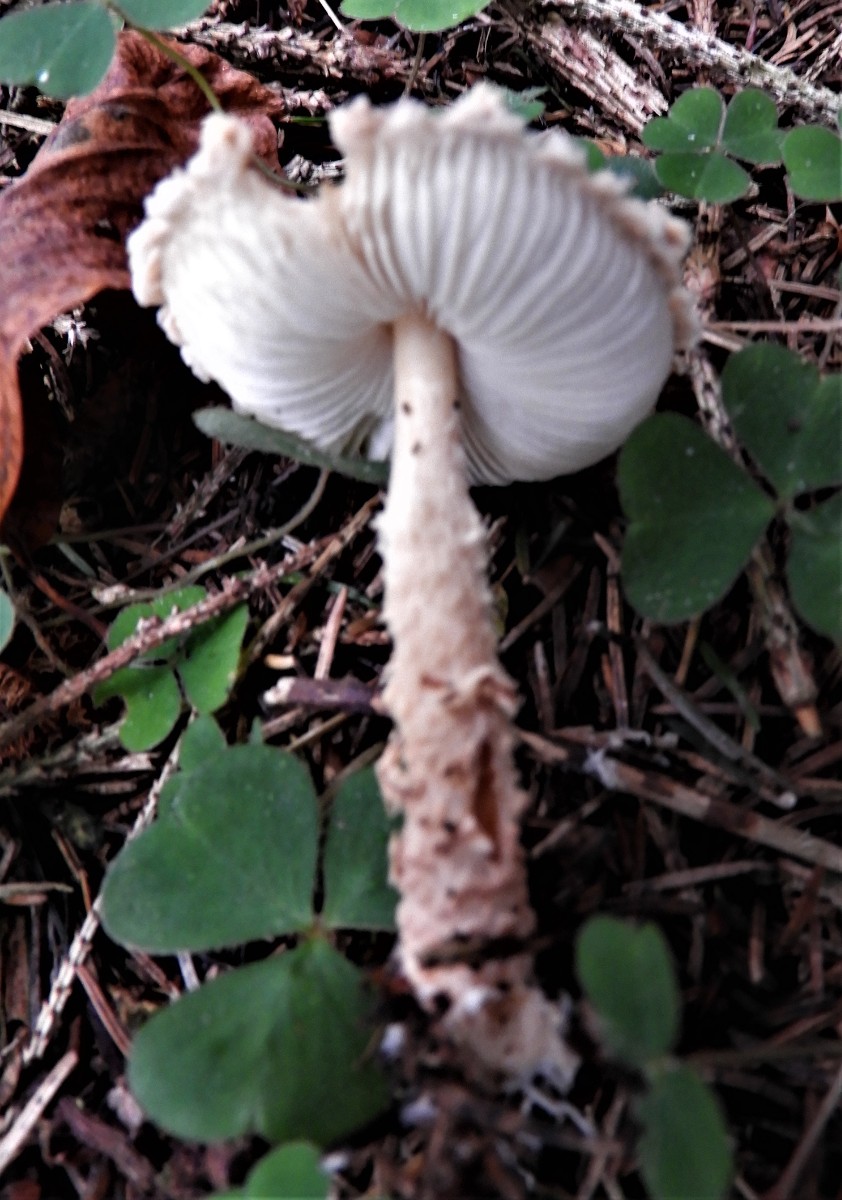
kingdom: Fungi
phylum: Basidiomycota
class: Agaricomycetes
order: Agaricales
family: Agaricaceae
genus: Lepiota
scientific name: Lepiota magnispora
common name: gulfnugget parasolhat
